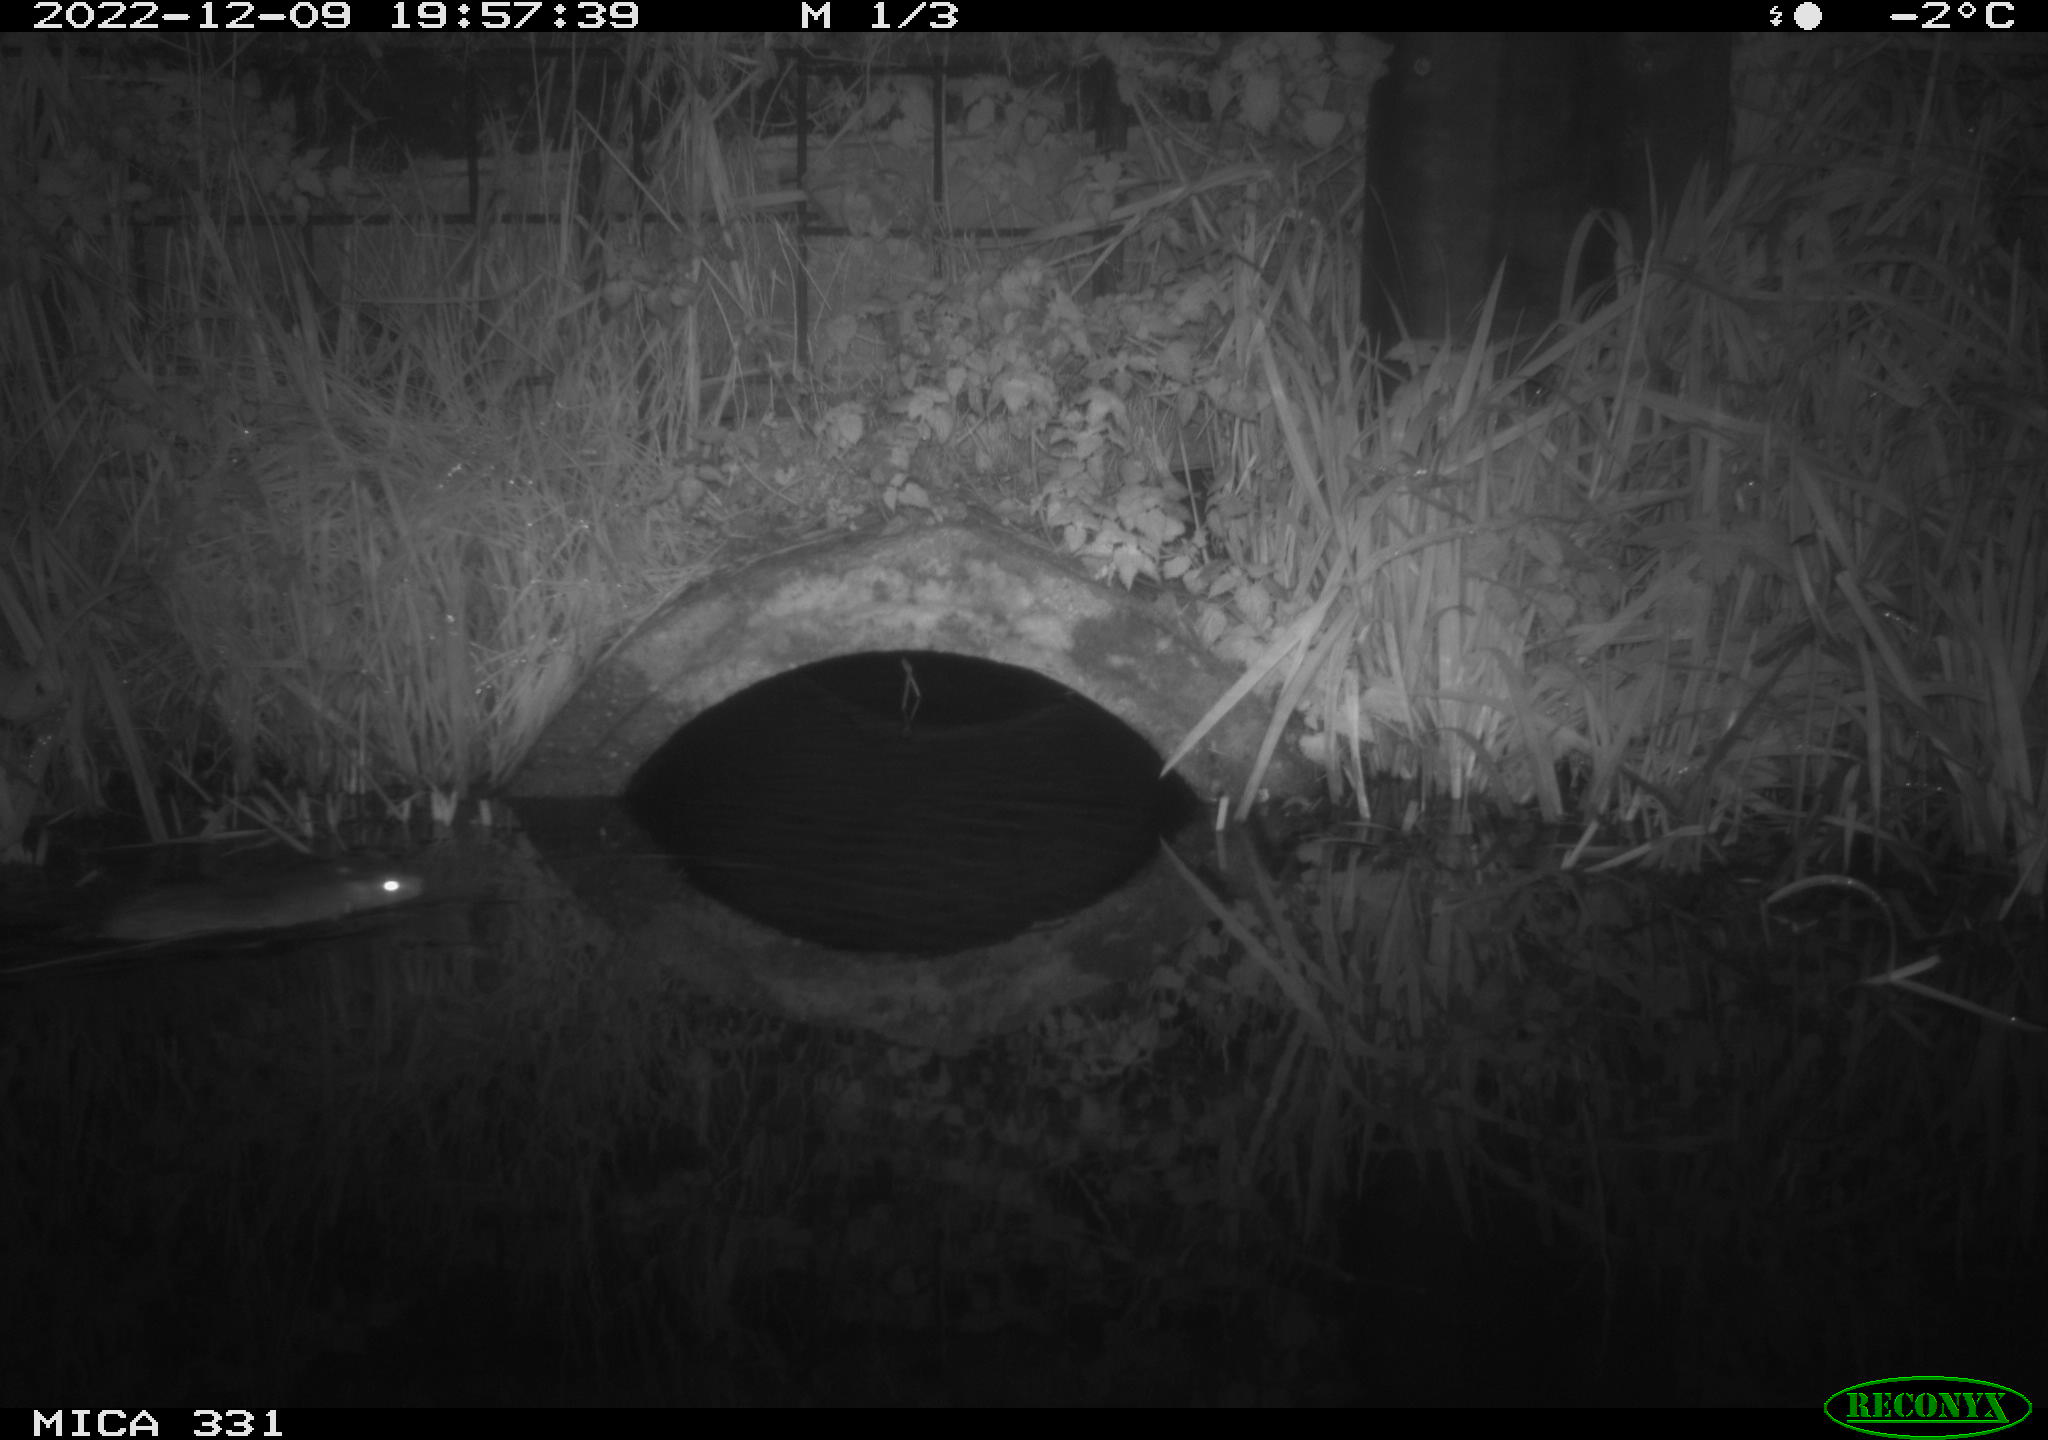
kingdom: Animalia
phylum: Chordata
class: Mammalia
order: Rodentia
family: Muridae
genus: Rattus
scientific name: Rattus norvegicus
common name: Brown rat
